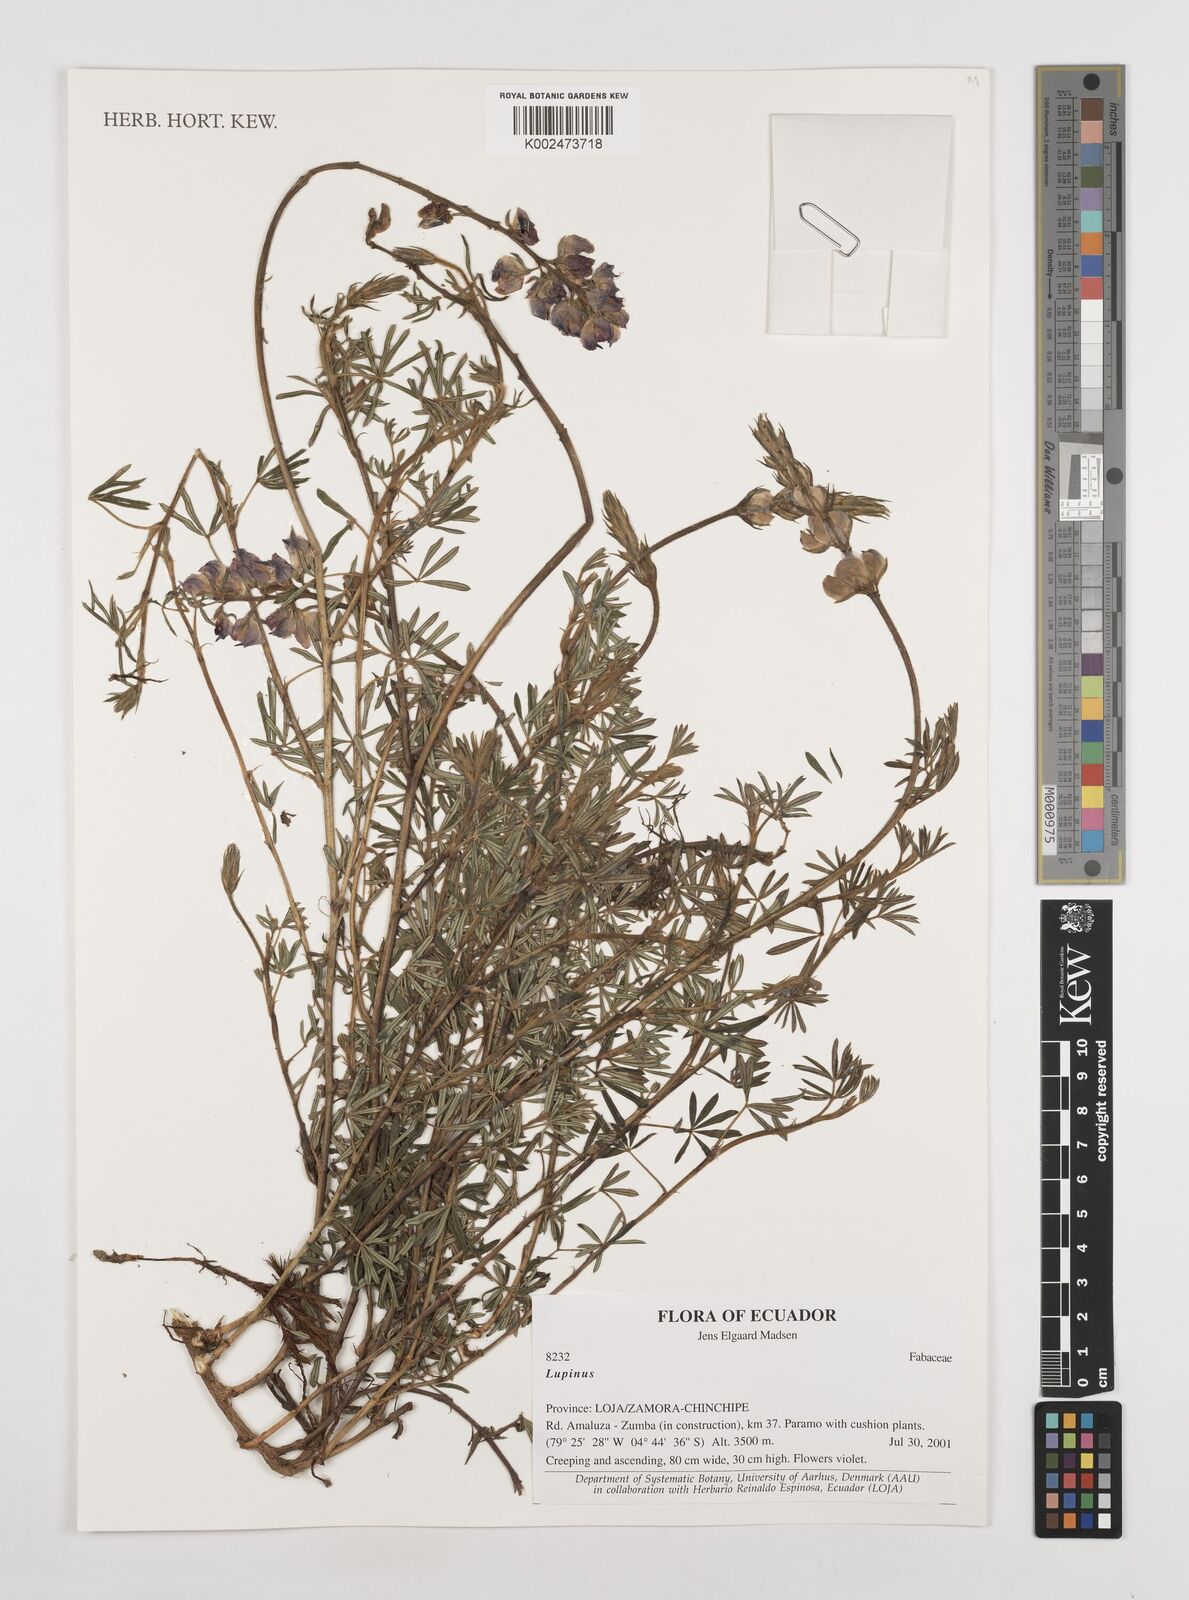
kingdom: Plantae
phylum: Tracheophyta
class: Magnoliopsida
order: Fabales
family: Fabaceae
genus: Lupinus
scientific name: Lupinus
